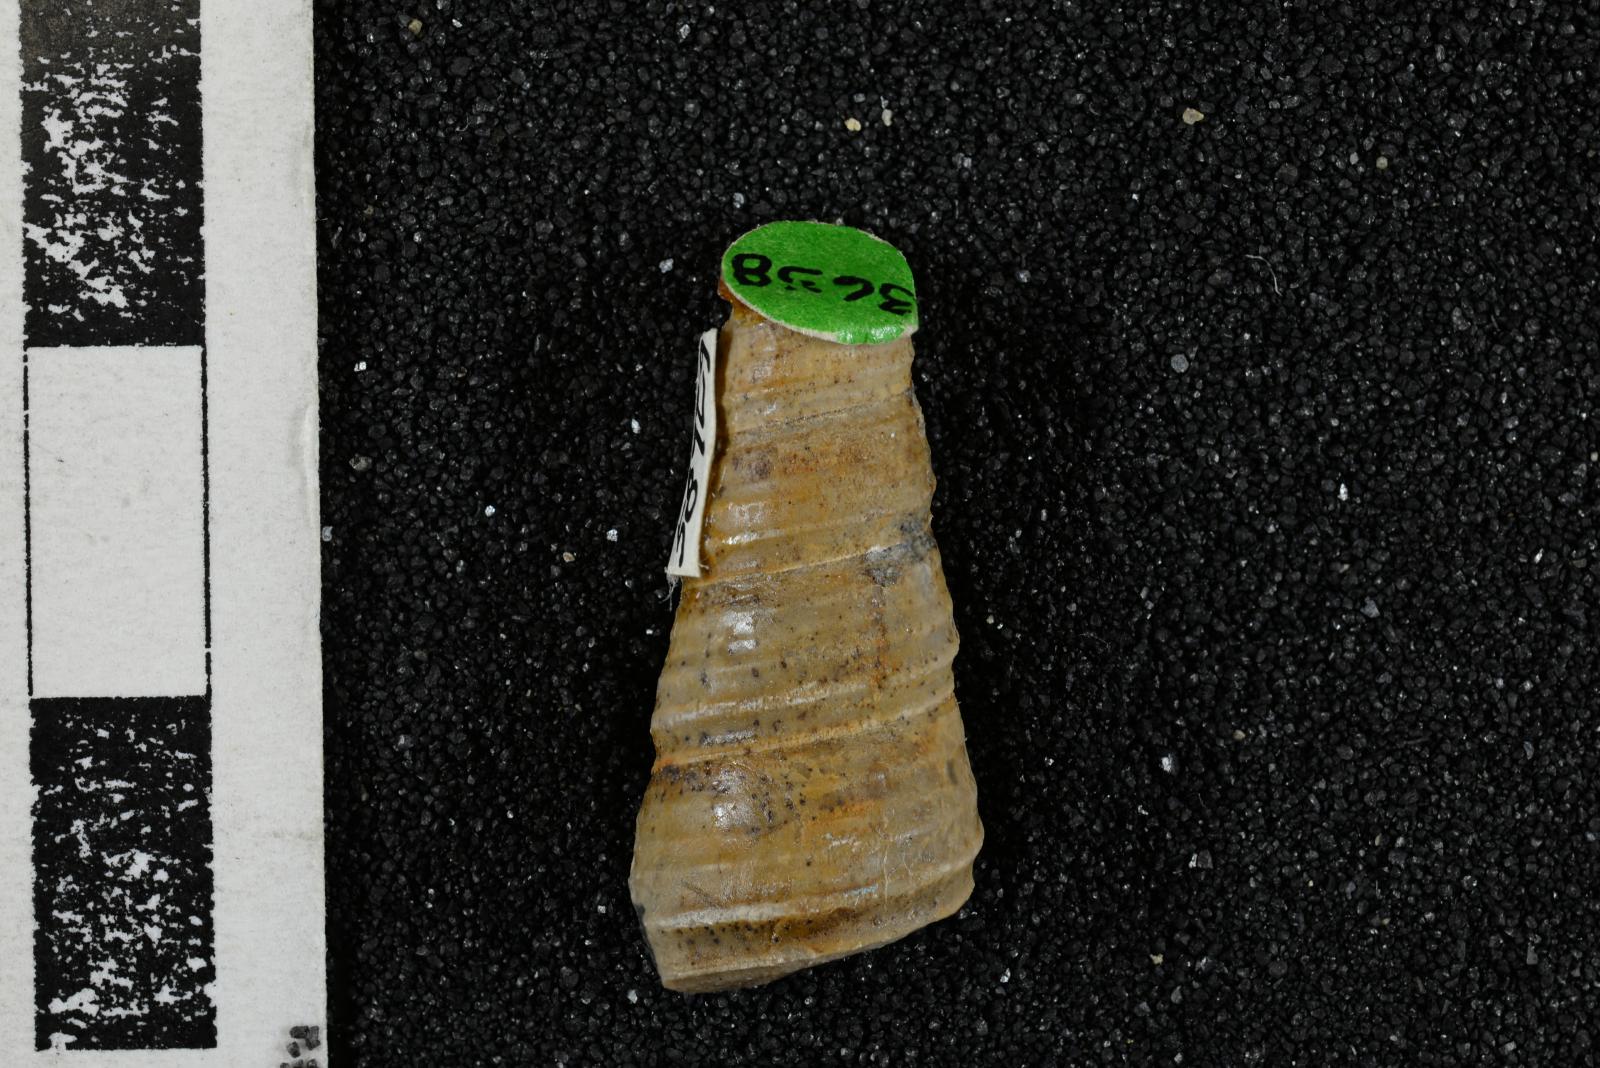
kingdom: Animalia
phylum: Mollusca
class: Gastropoda
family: Turritellidae
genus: Turritella
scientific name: Turritella chicoensis
